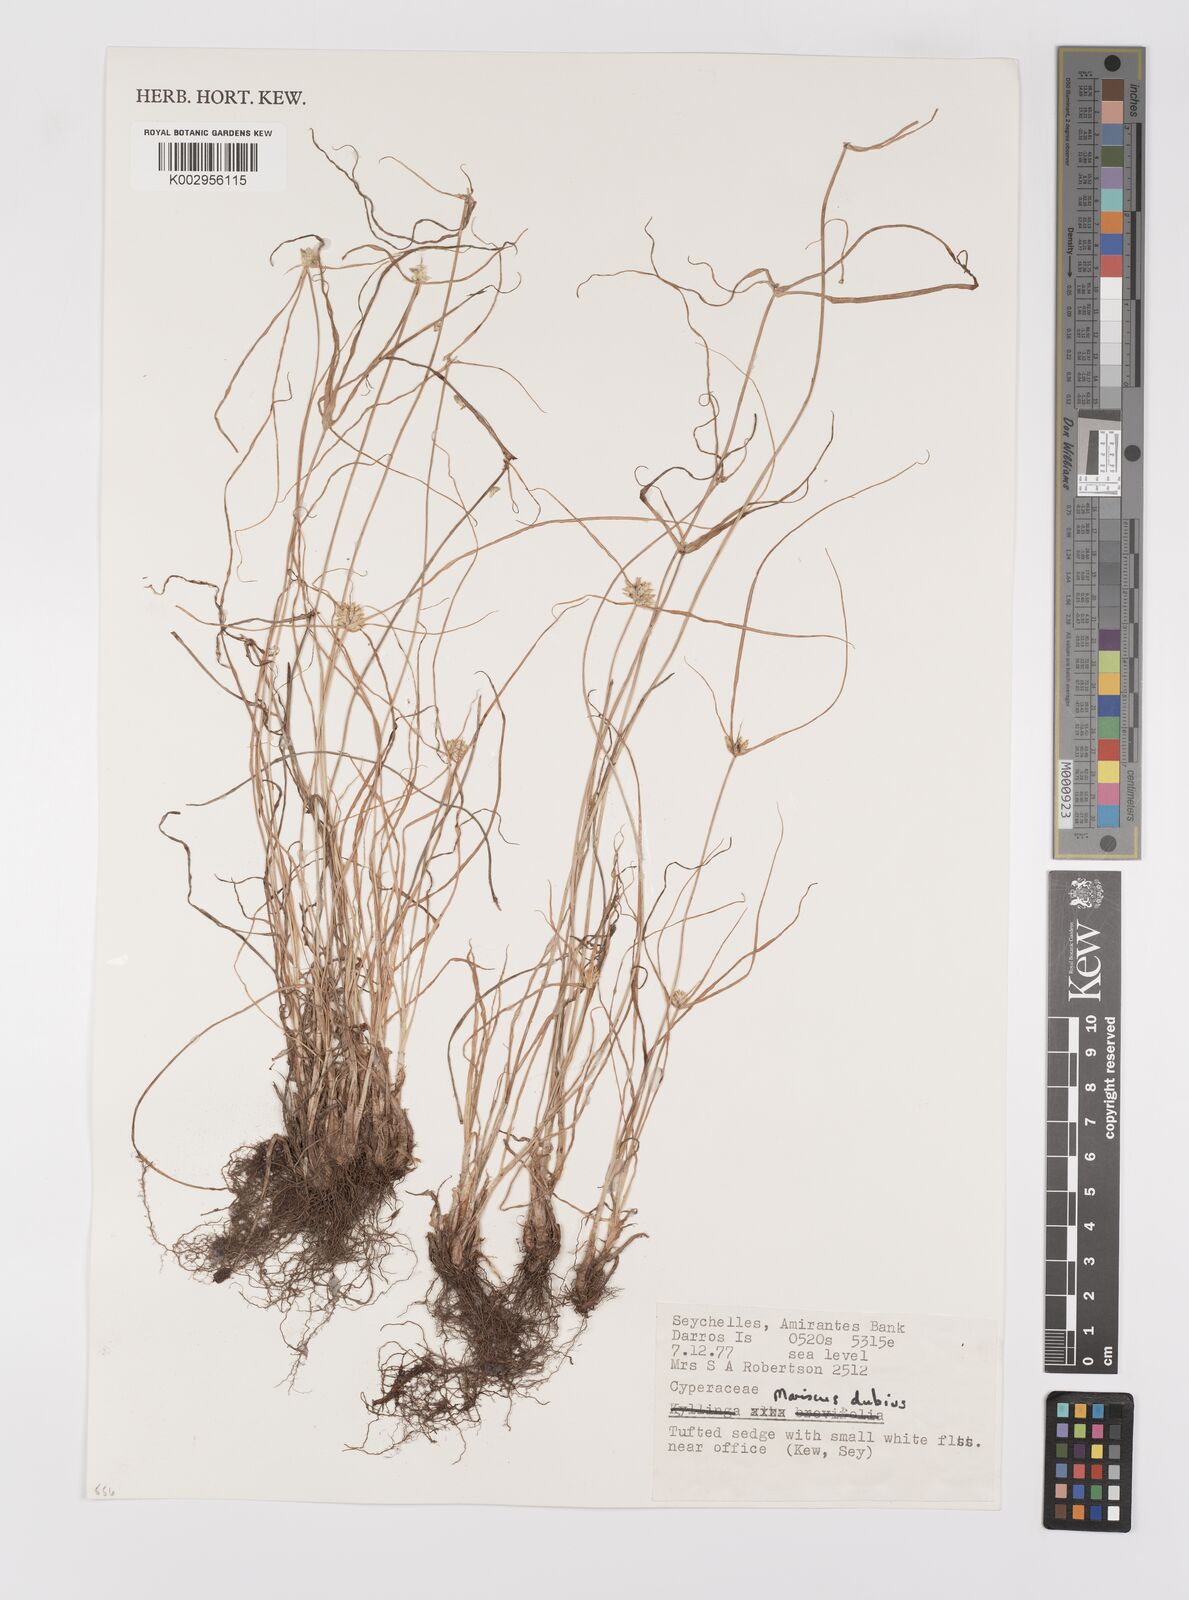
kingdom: Plantae
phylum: Tracheophyta
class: Liliopsida
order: Poales
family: Cyperaceae
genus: Cyperus
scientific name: Cyperus dubius
